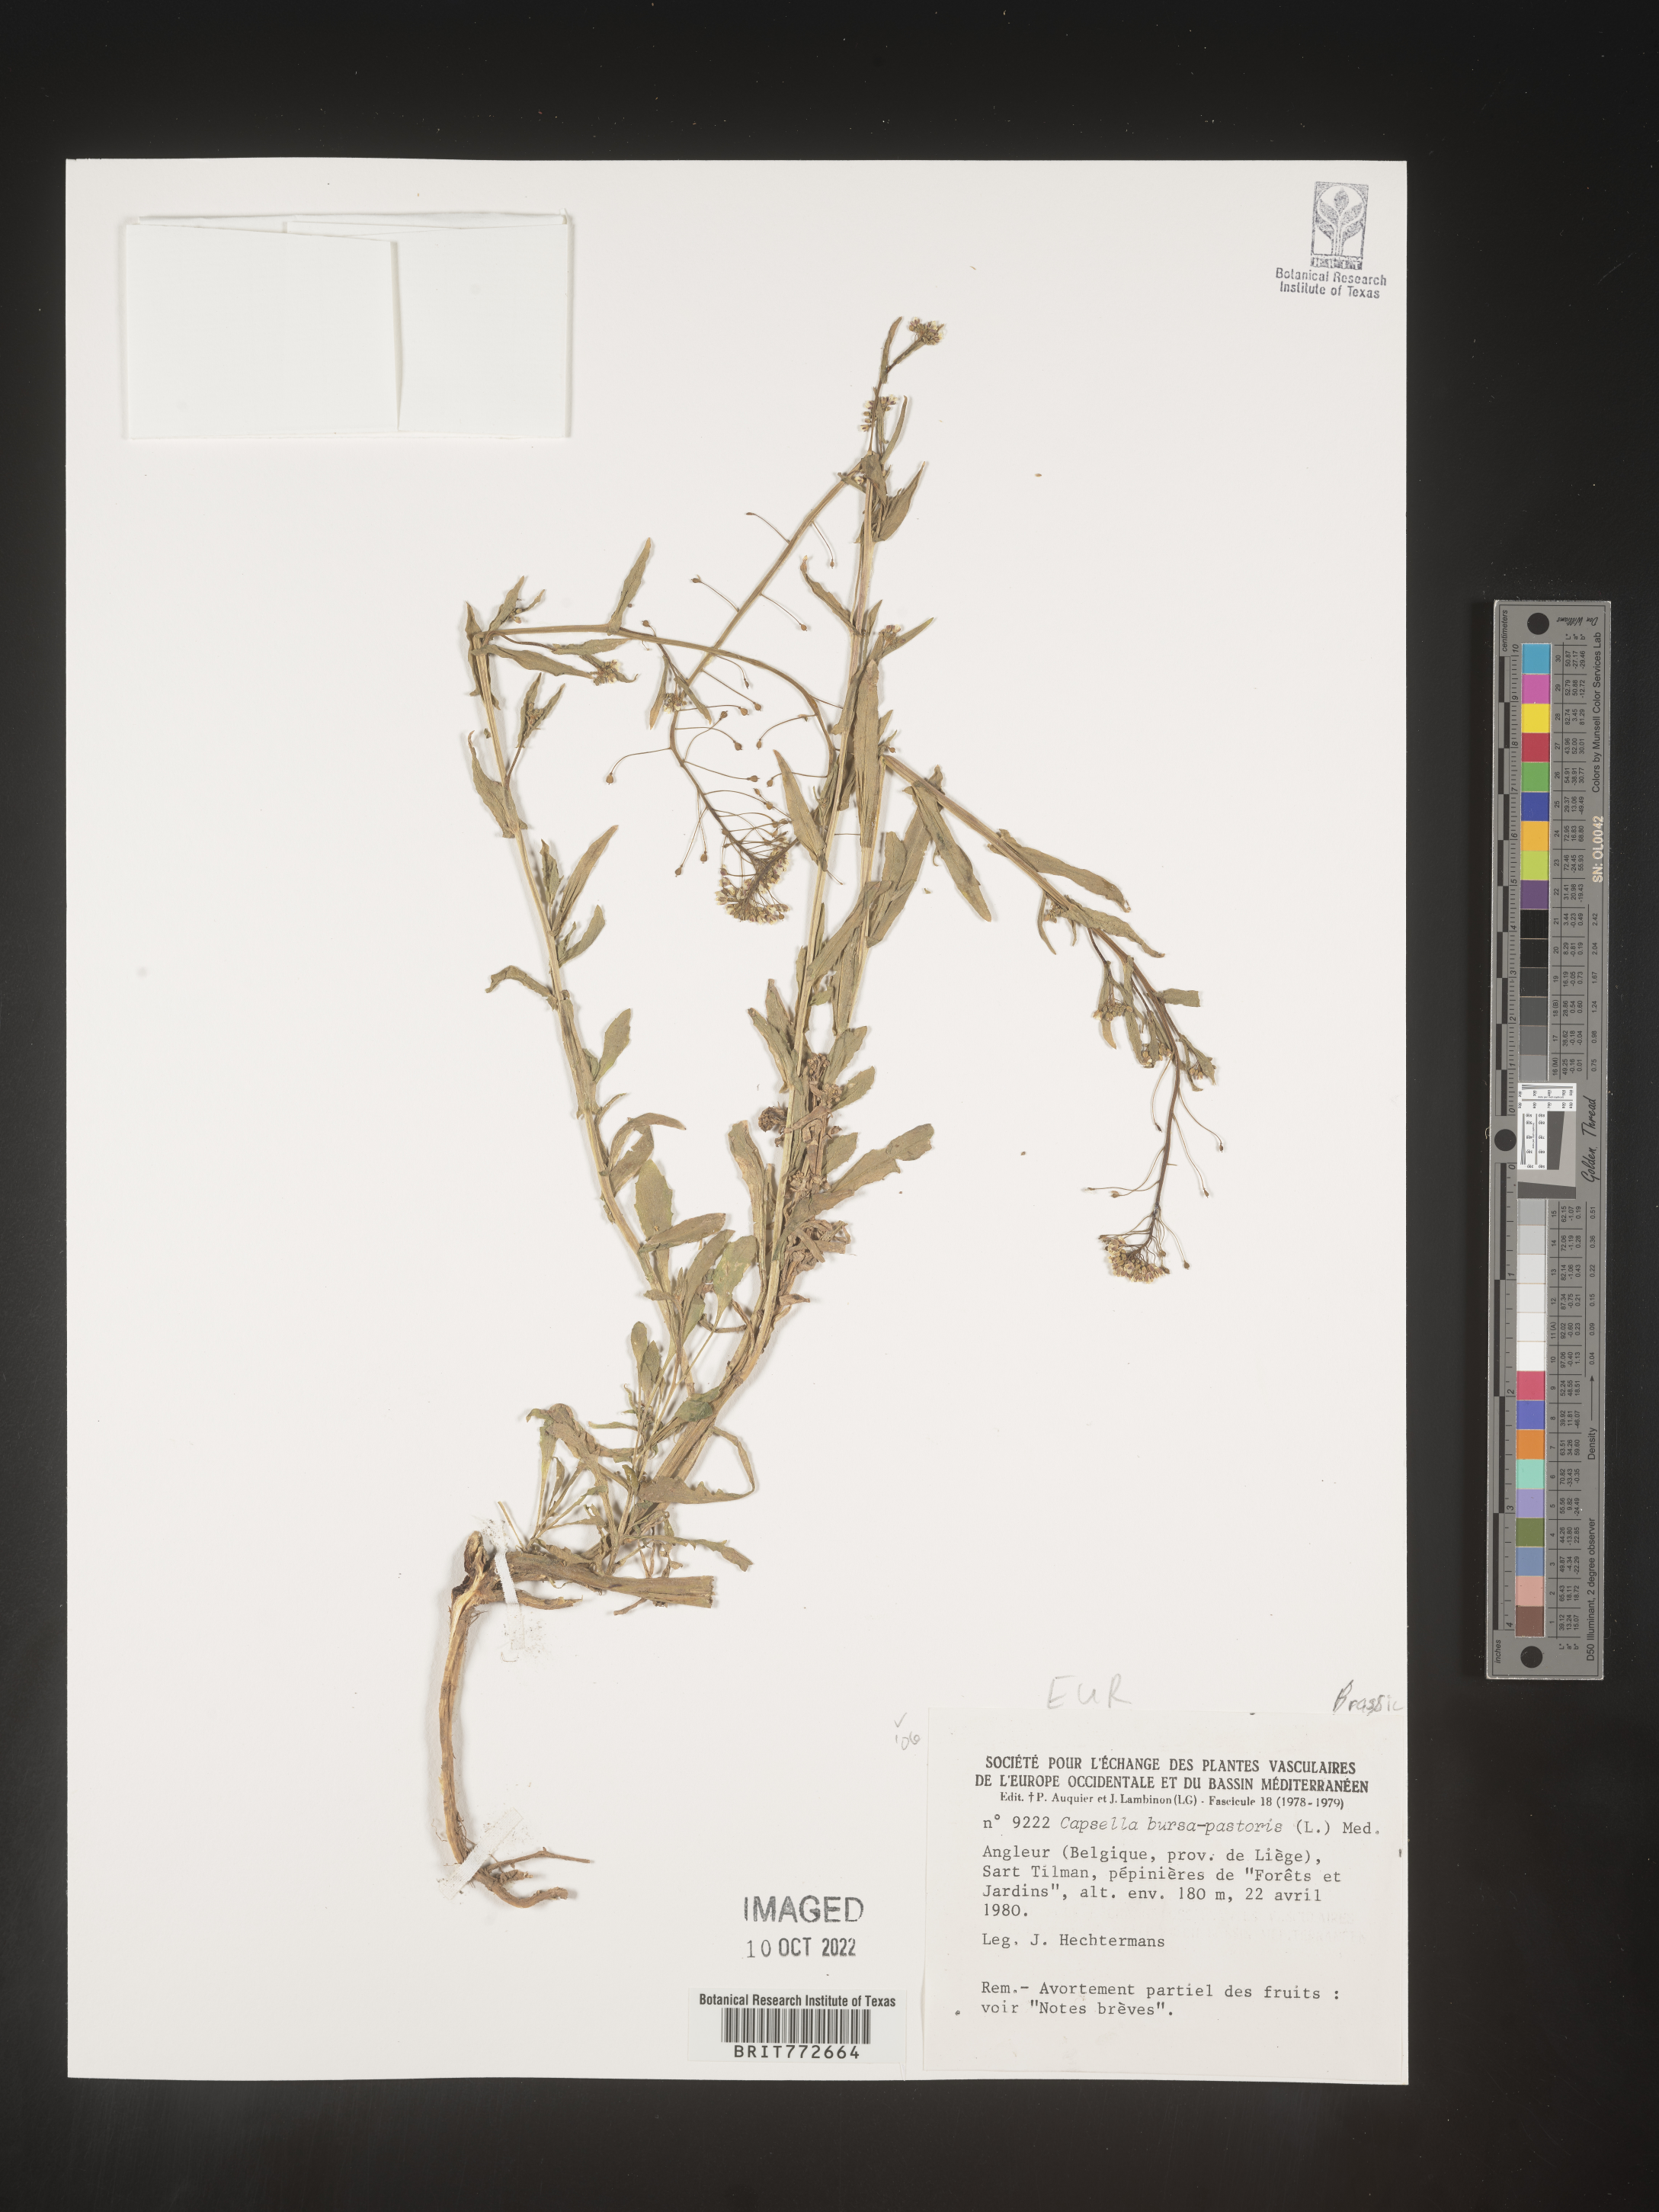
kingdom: Plantae
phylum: Tracheophyta
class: Magnoliopsida
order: Brassicales
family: Brassicaceae
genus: Capsella
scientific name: Capsella
